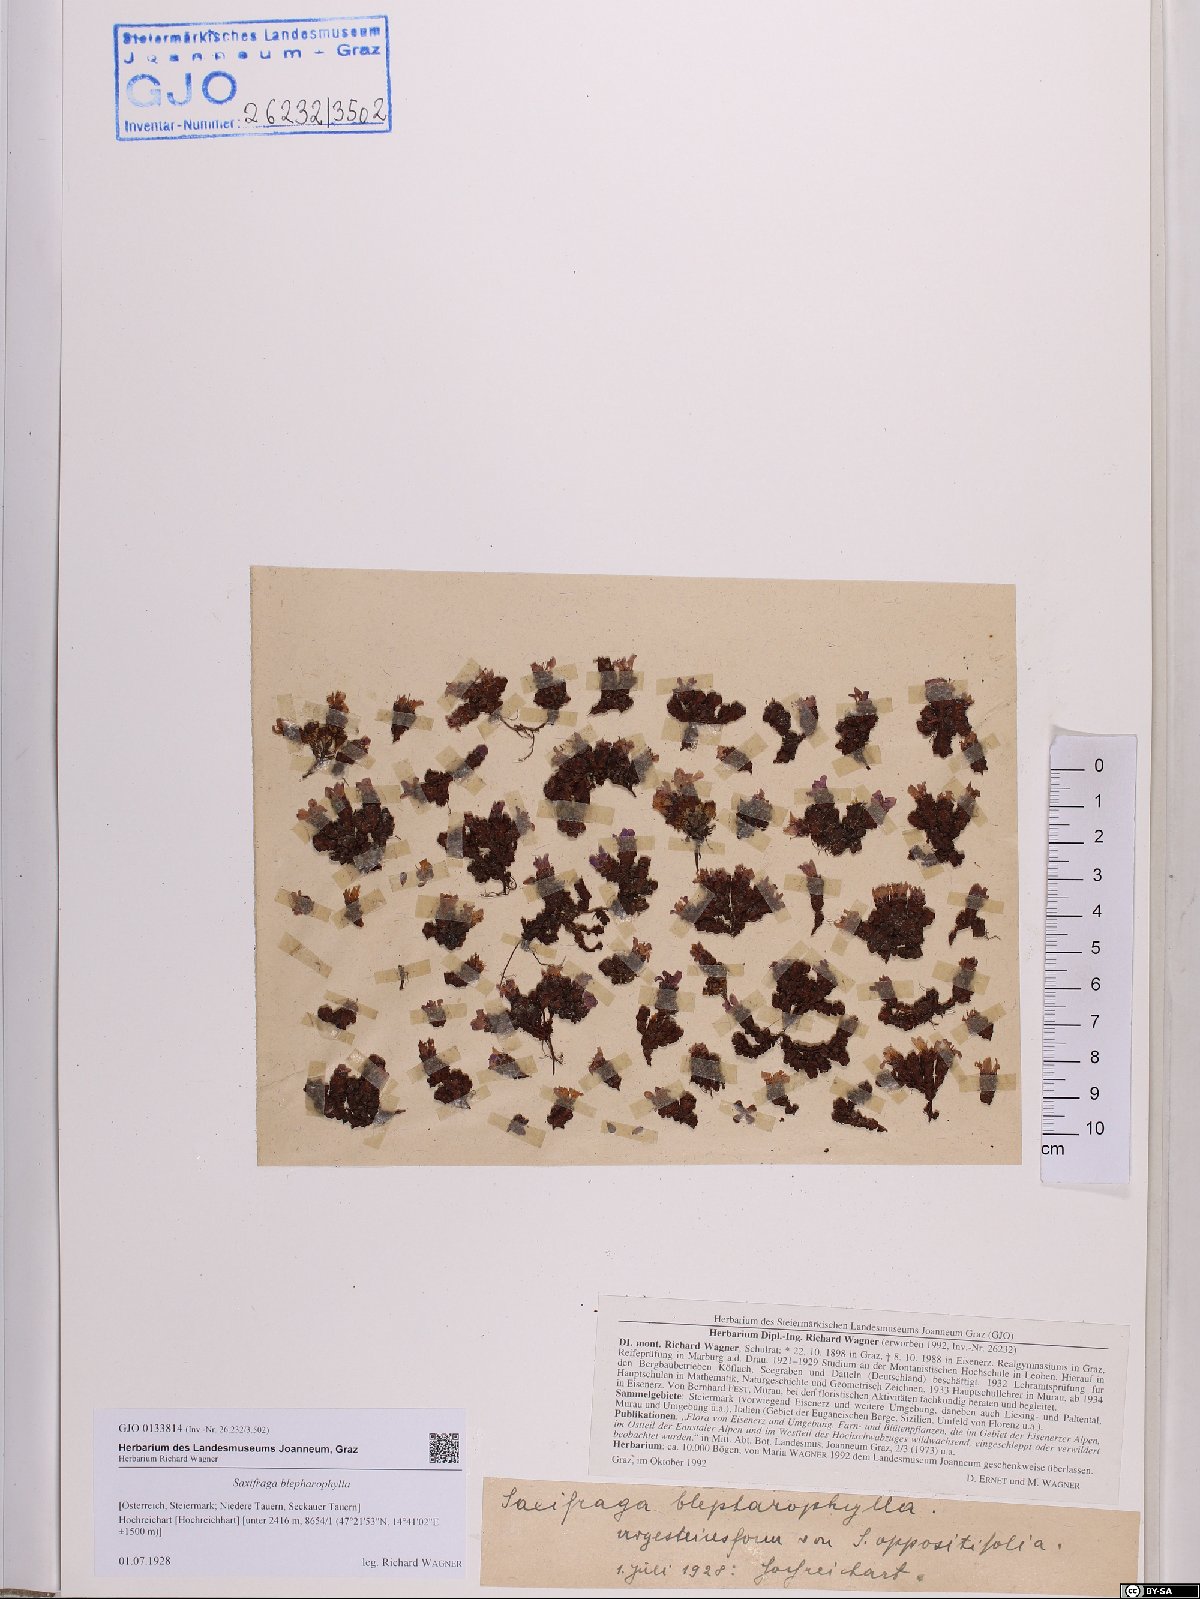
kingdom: Plantae
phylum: Tracheophyta
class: Magnoliopsida
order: Saxifragales
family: Saxifragaceae
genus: Saxifraga
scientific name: Saxifraga oppositifolia
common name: Purple saxifrage
